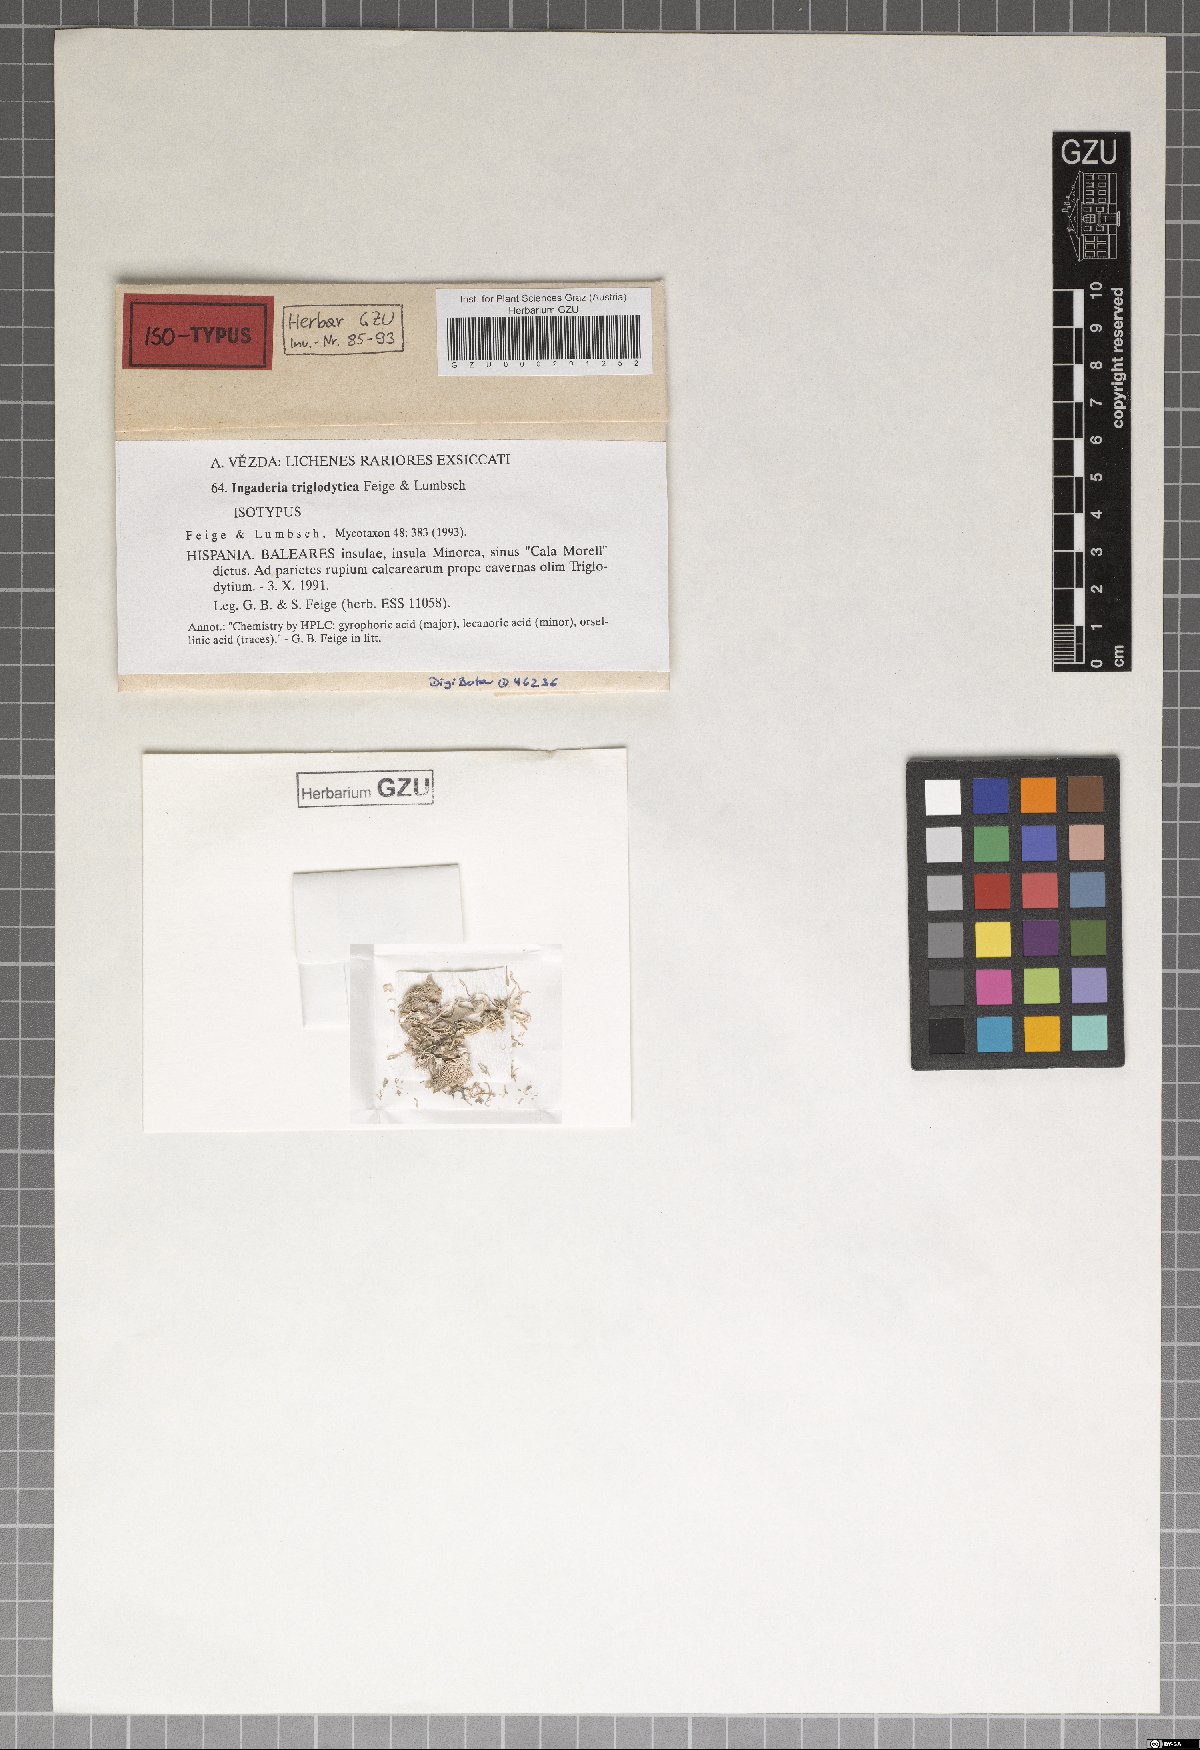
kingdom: Fungi
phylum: Ascomycota
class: Arthoniomycetes
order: Arthoniales
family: Roccellaceae
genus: Paralecanographa
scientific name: Paralecanographa grumulosa
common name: Churchyard lecanactis
